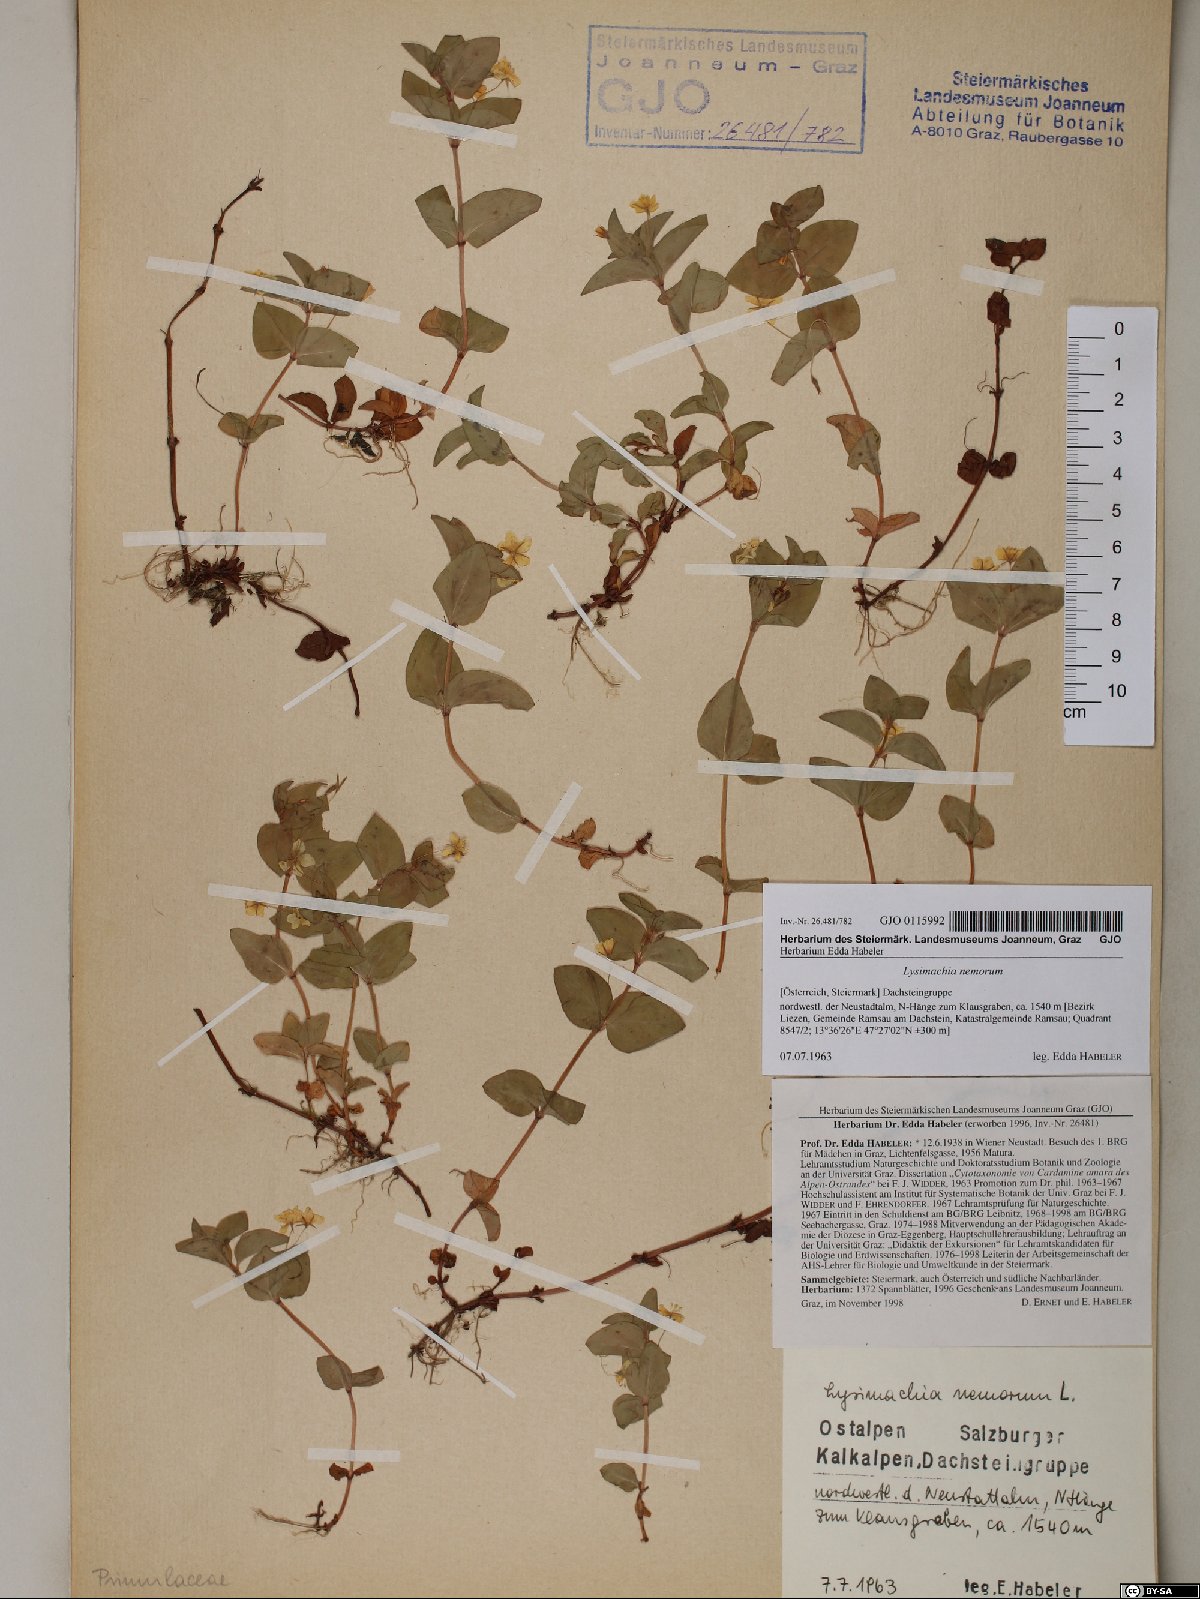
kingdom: Plantae
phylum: Tracheophyta
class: Magnoliopsida
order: Ericales
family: Primulaceae
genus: Lysimachia
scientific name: Lysimachia nemorum
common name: Yellow pimpernel
